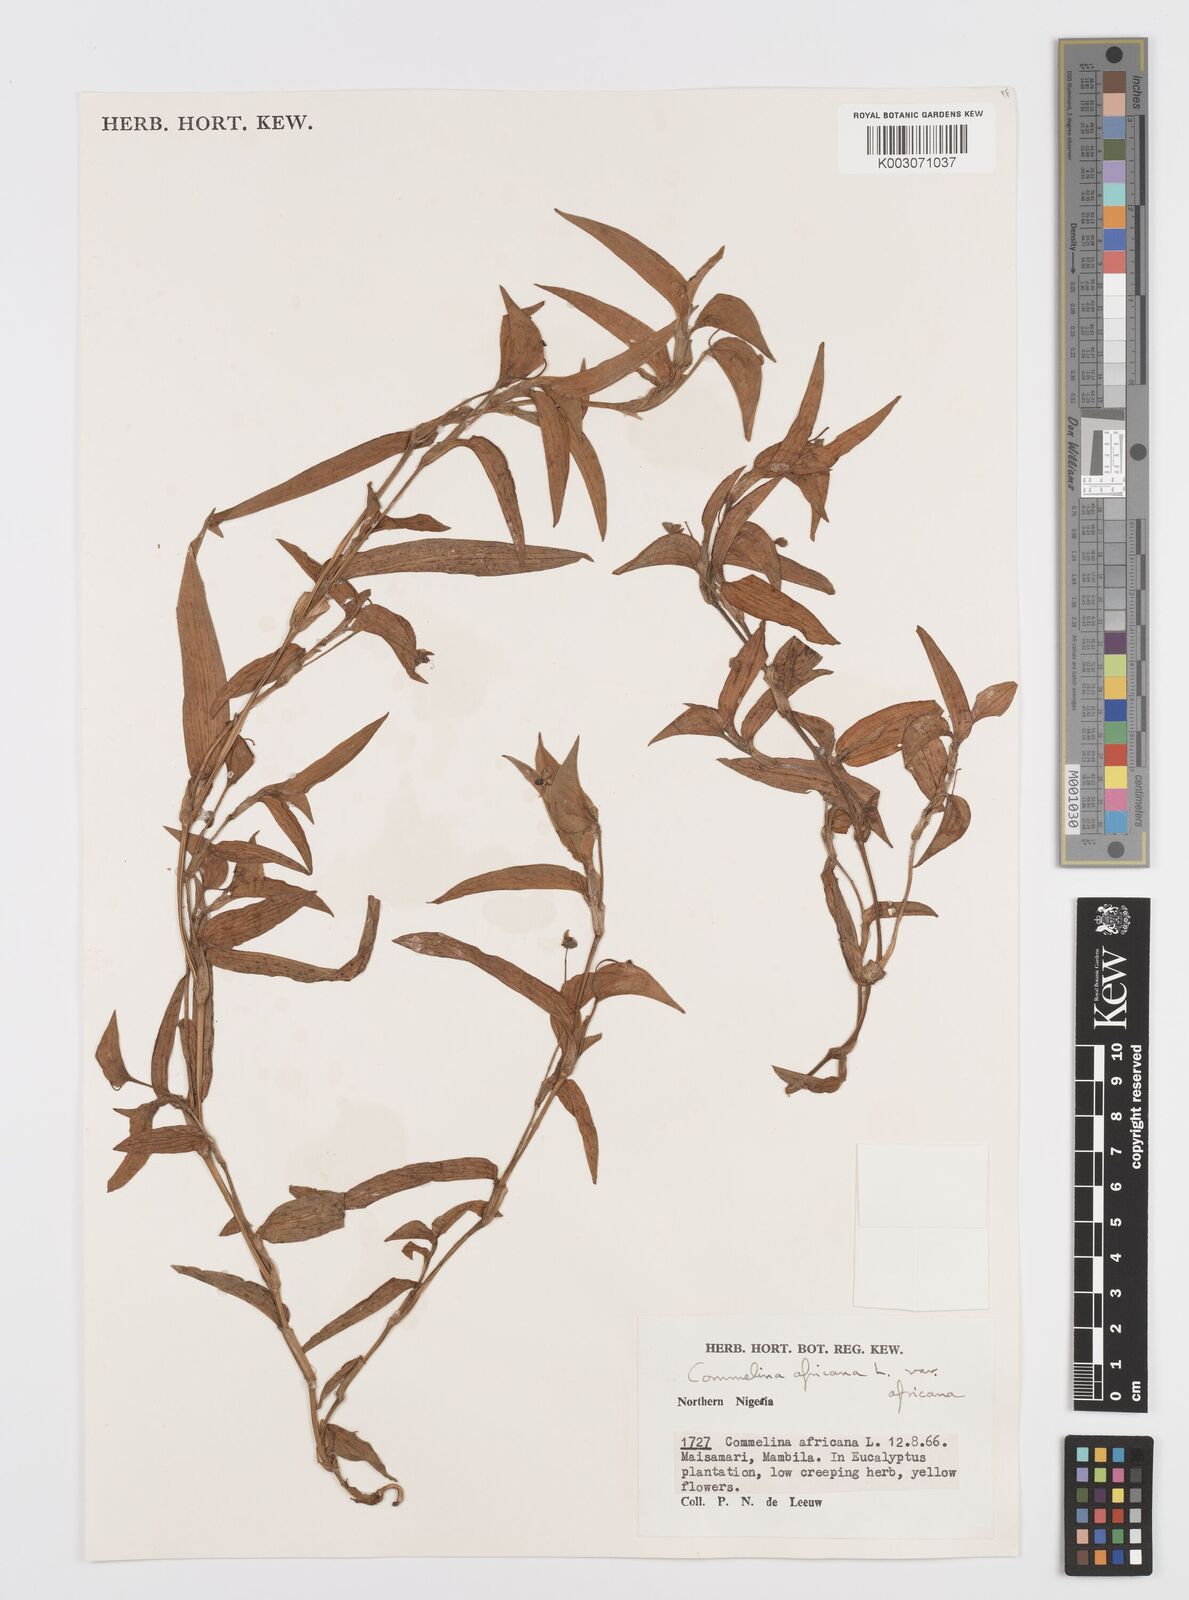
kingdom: Plantae
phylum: Tracheophyta
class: Liliopsida
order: Commelinales
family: Commelinaceae
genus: Commelina
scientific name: Commelina africana
